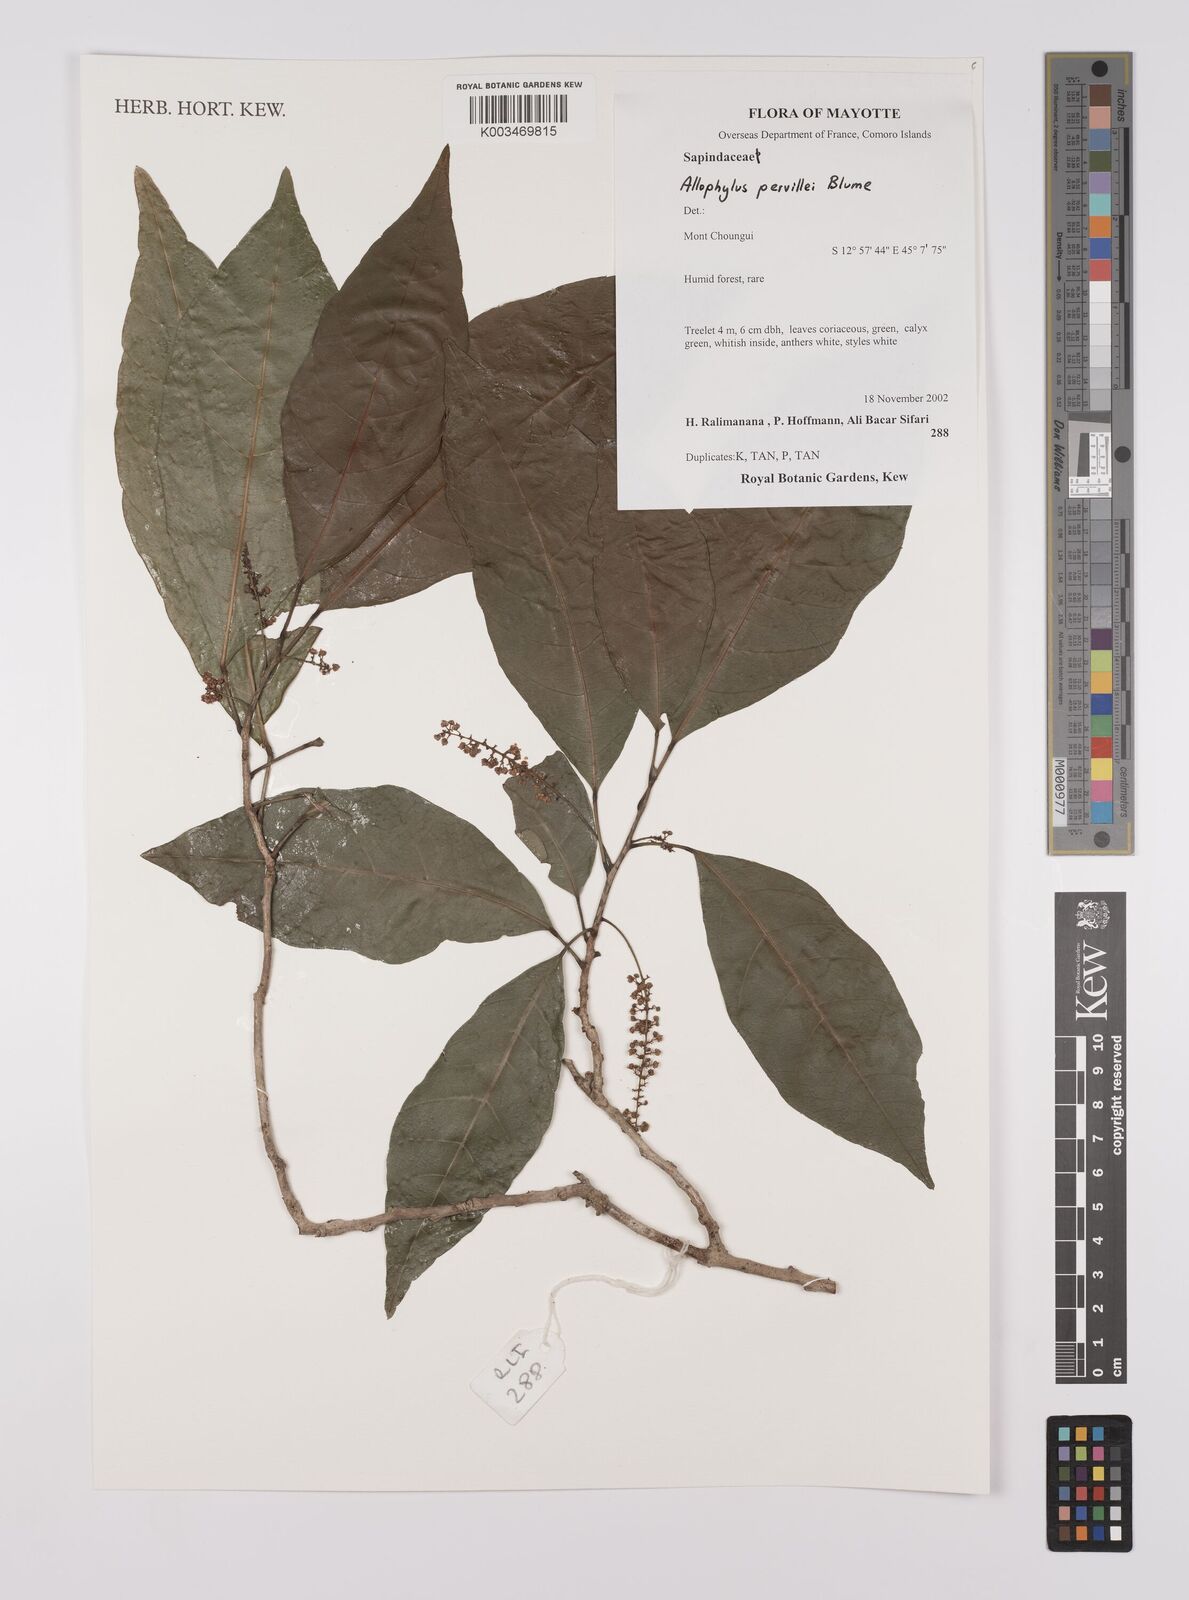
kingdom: Plantae
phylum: Tracheophyta
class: Magnoliopsida
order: Sapindales
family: Sapindaceae
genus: Allophylus
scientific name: Allophylus pervillei
